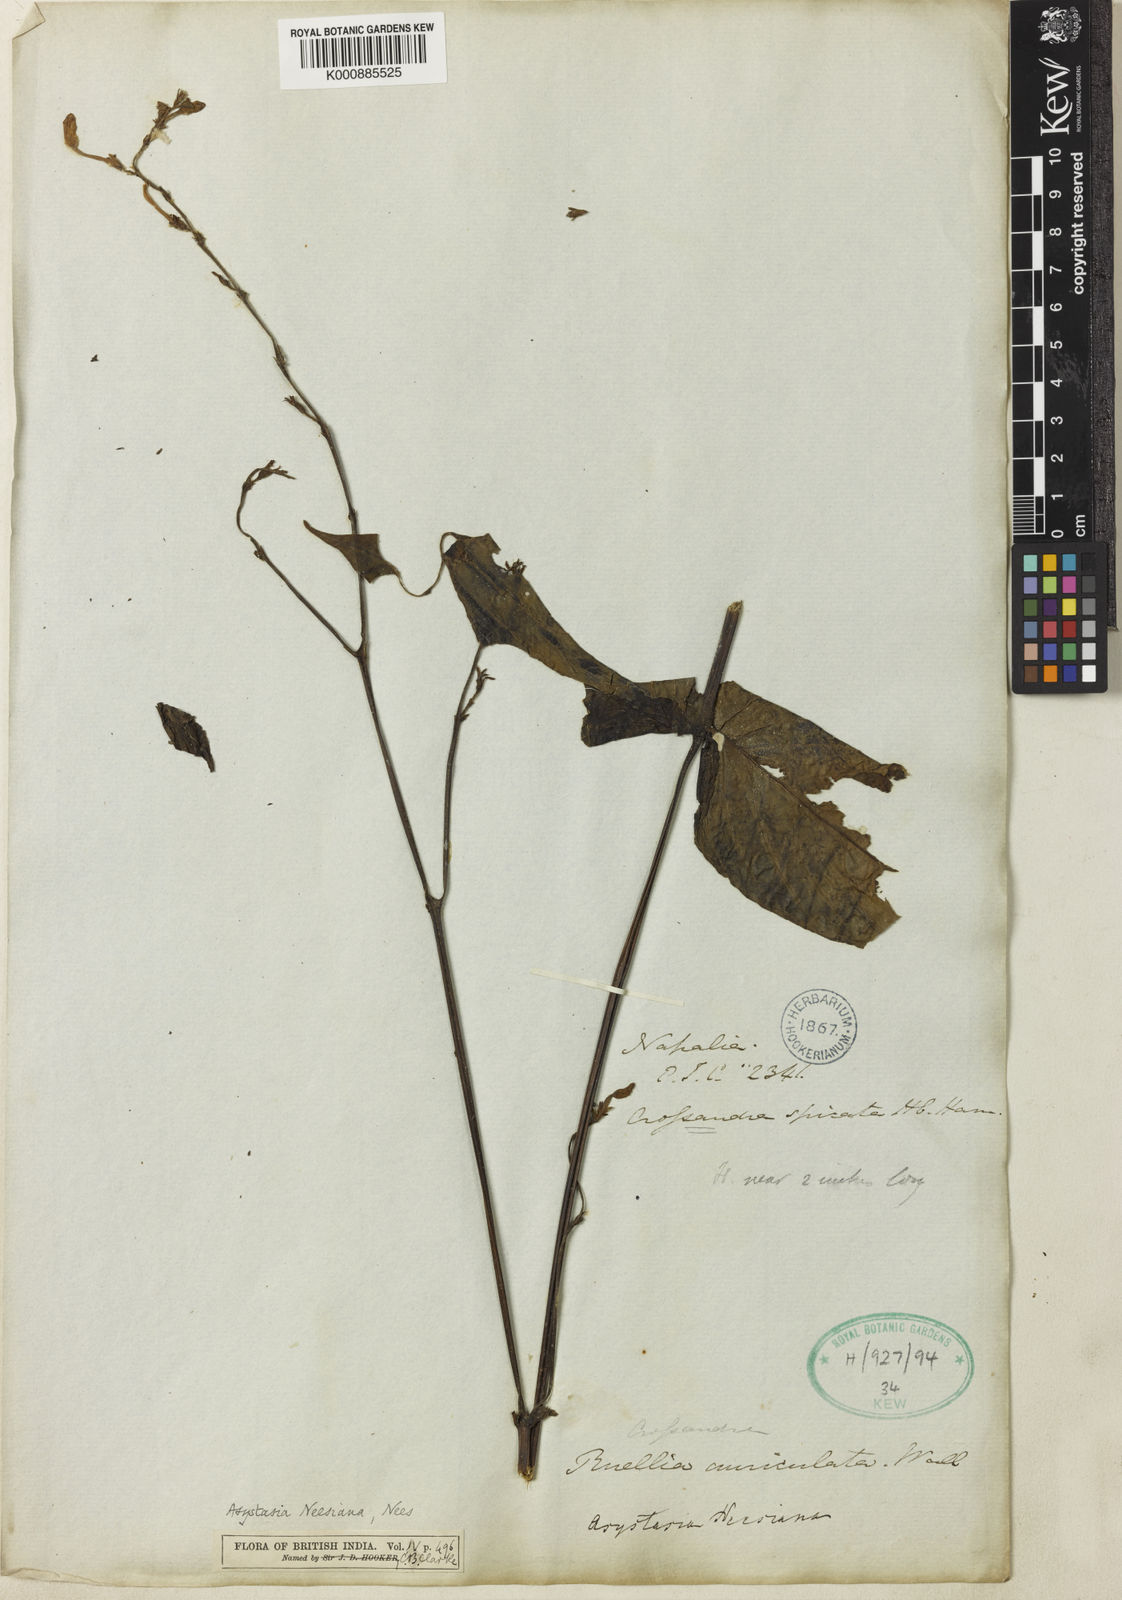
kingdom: Plantae
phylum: Tracheophyta
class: Magnoliopsida
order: Lamiales
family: Acanthaceae
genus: Mackaya
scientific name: Mackaya neesiana
